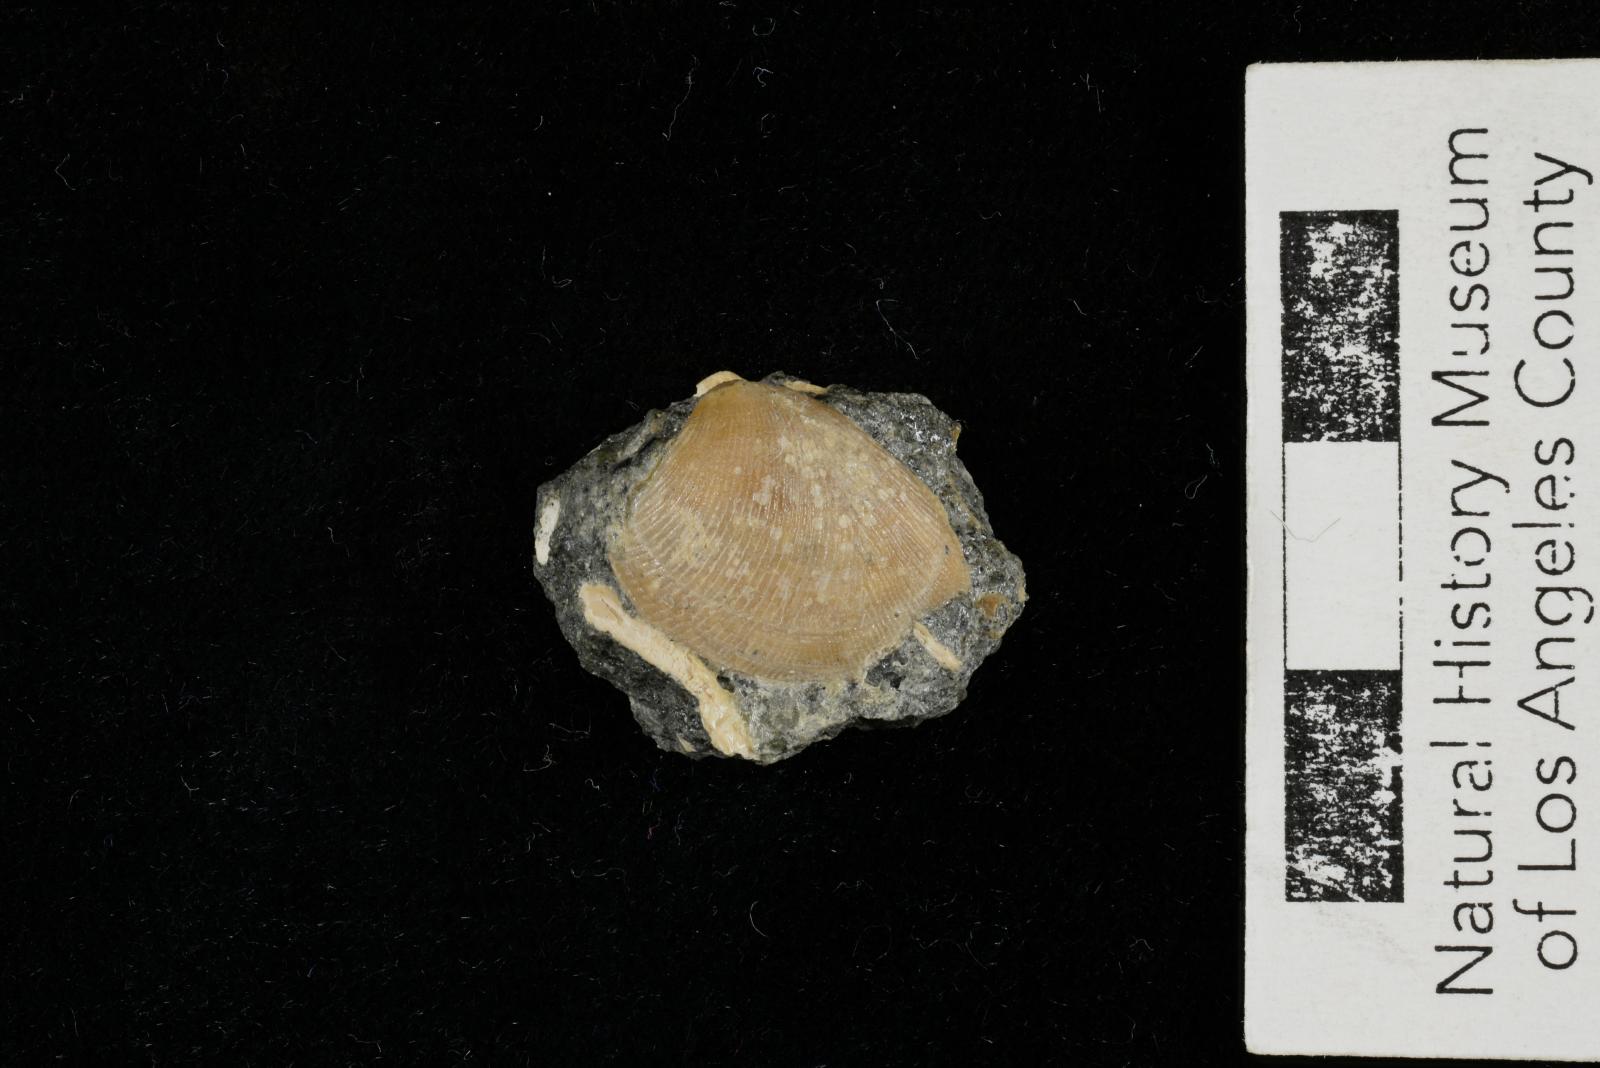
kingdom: Animalia
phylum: Mollusca
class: Bivalvia
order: Nuculida
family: Nuculidae
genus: Acila
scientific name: Acila demessa
